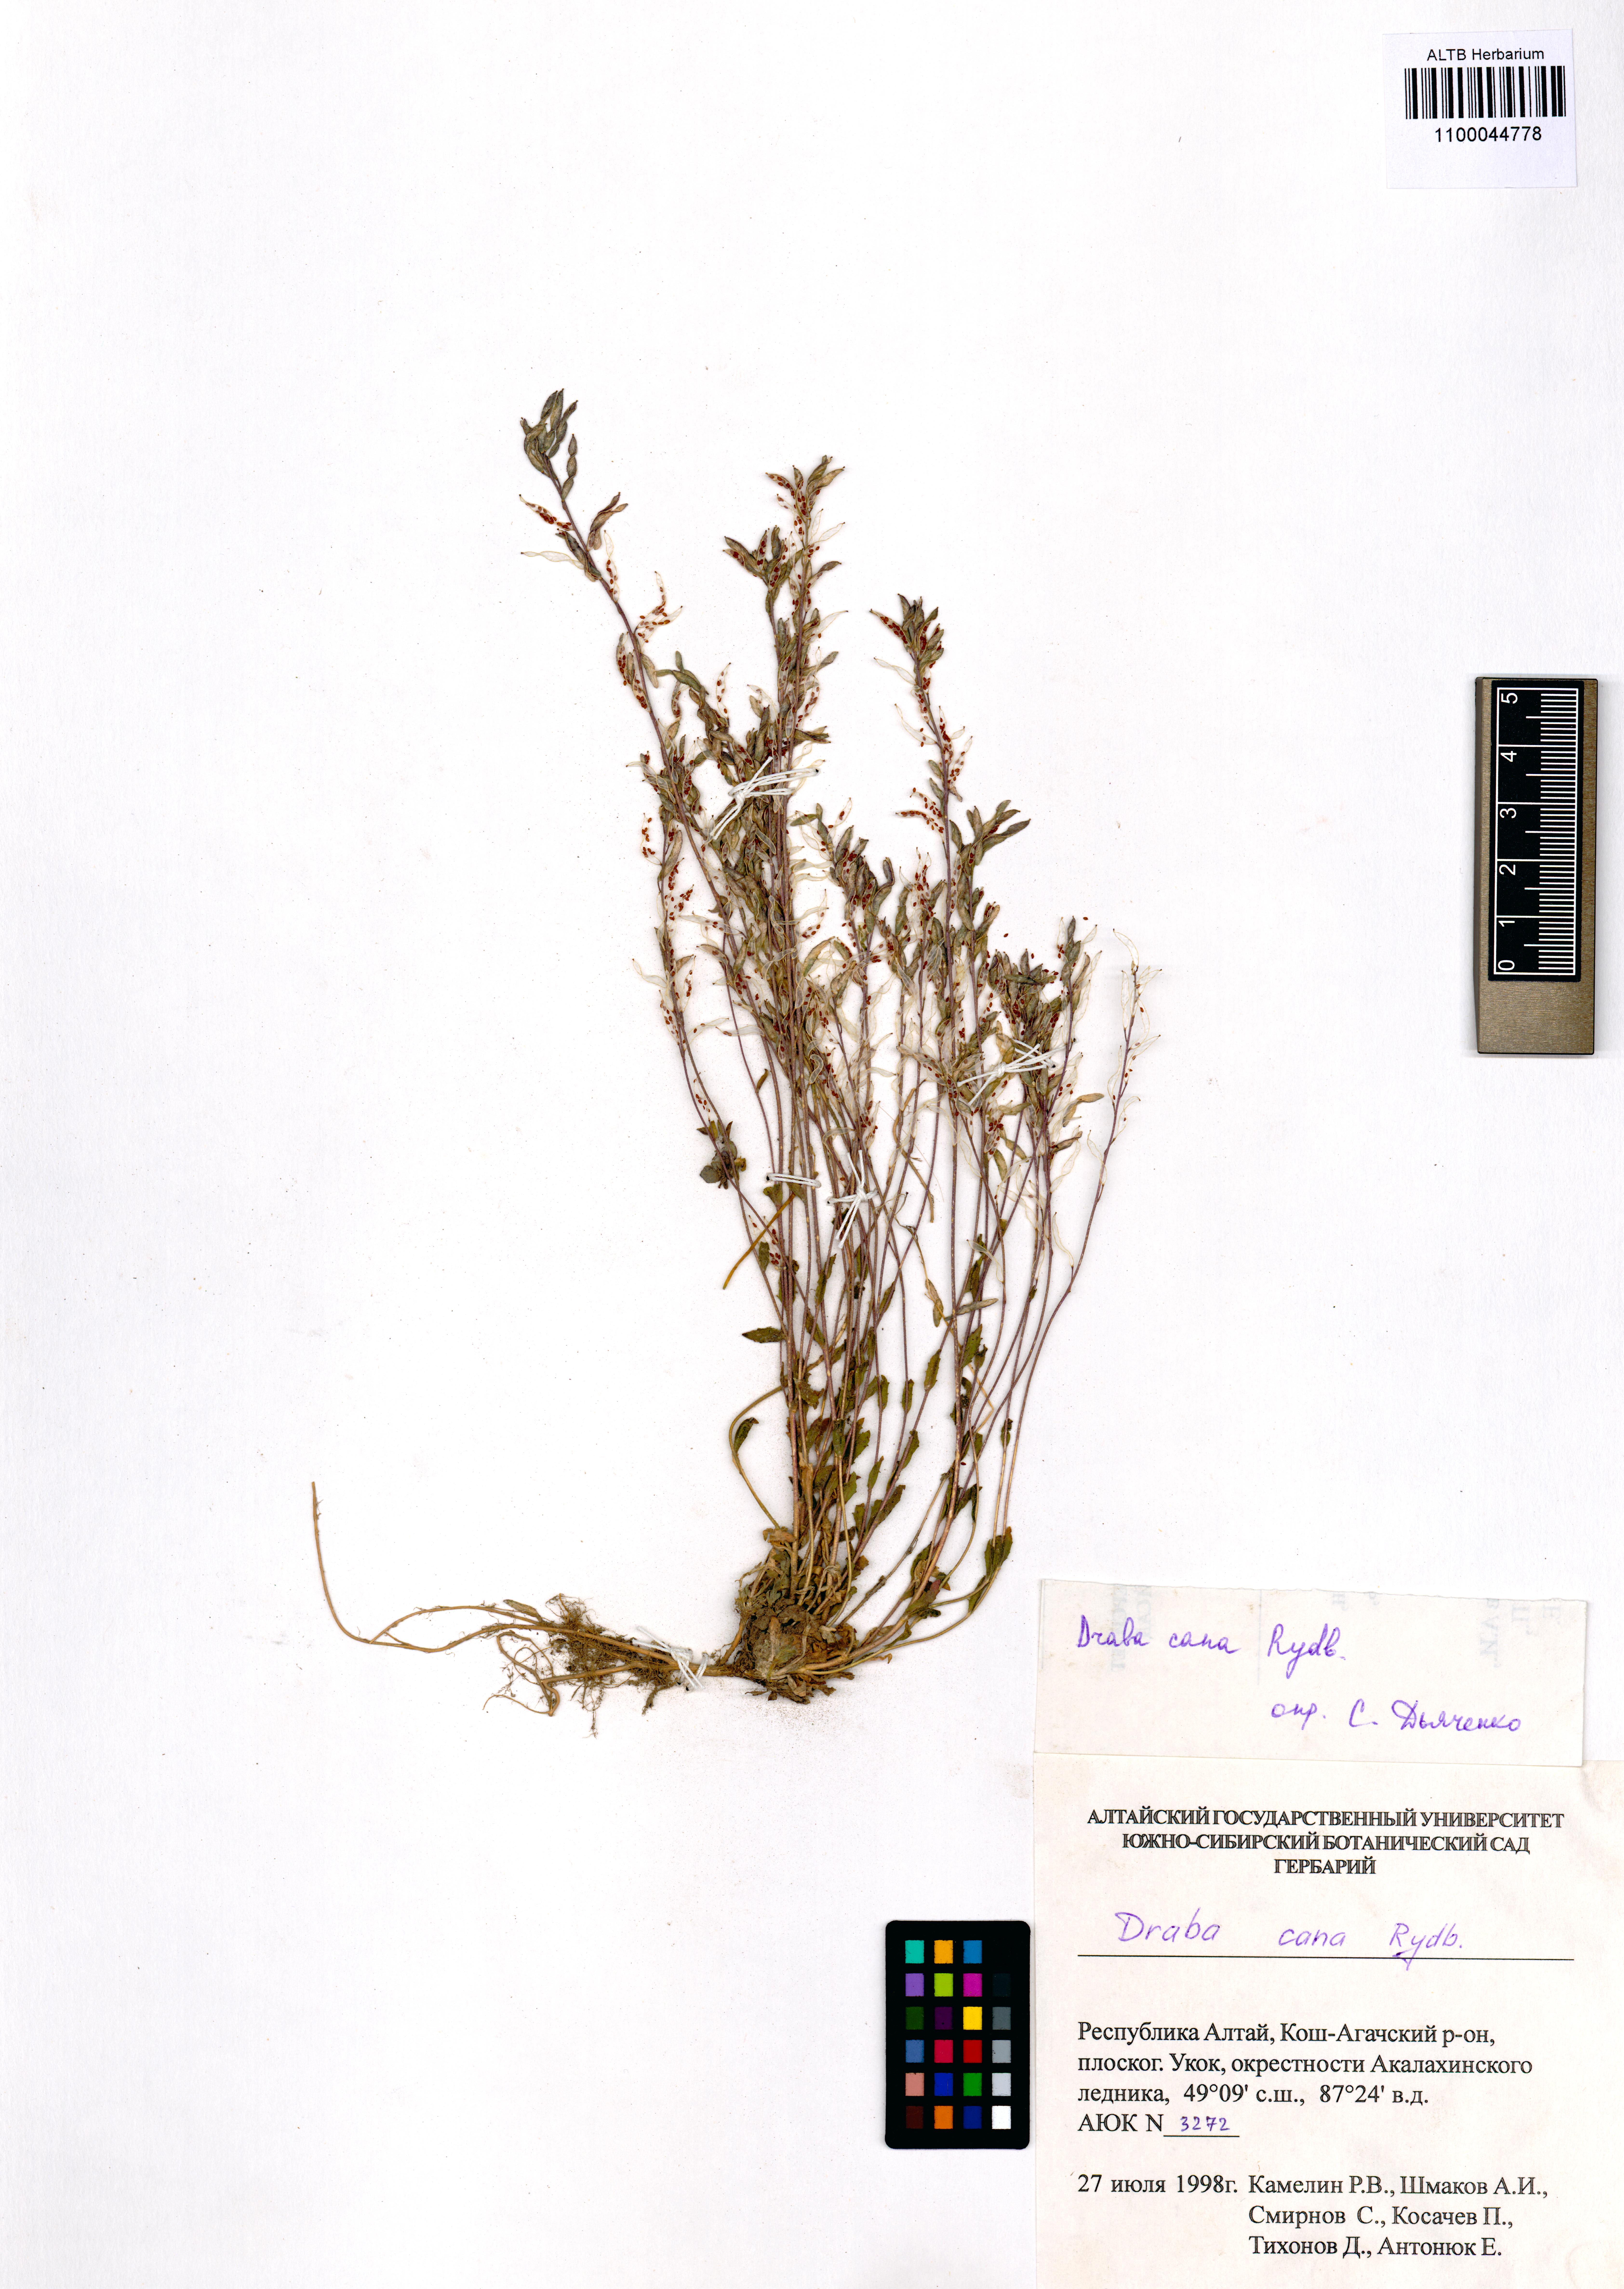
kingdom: Plantae
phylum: Tracheophyta
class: Magnoliopsida
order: Brassicales
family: Brassicaceae
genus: Draba
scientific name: Draba cana
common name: Hoary draba
